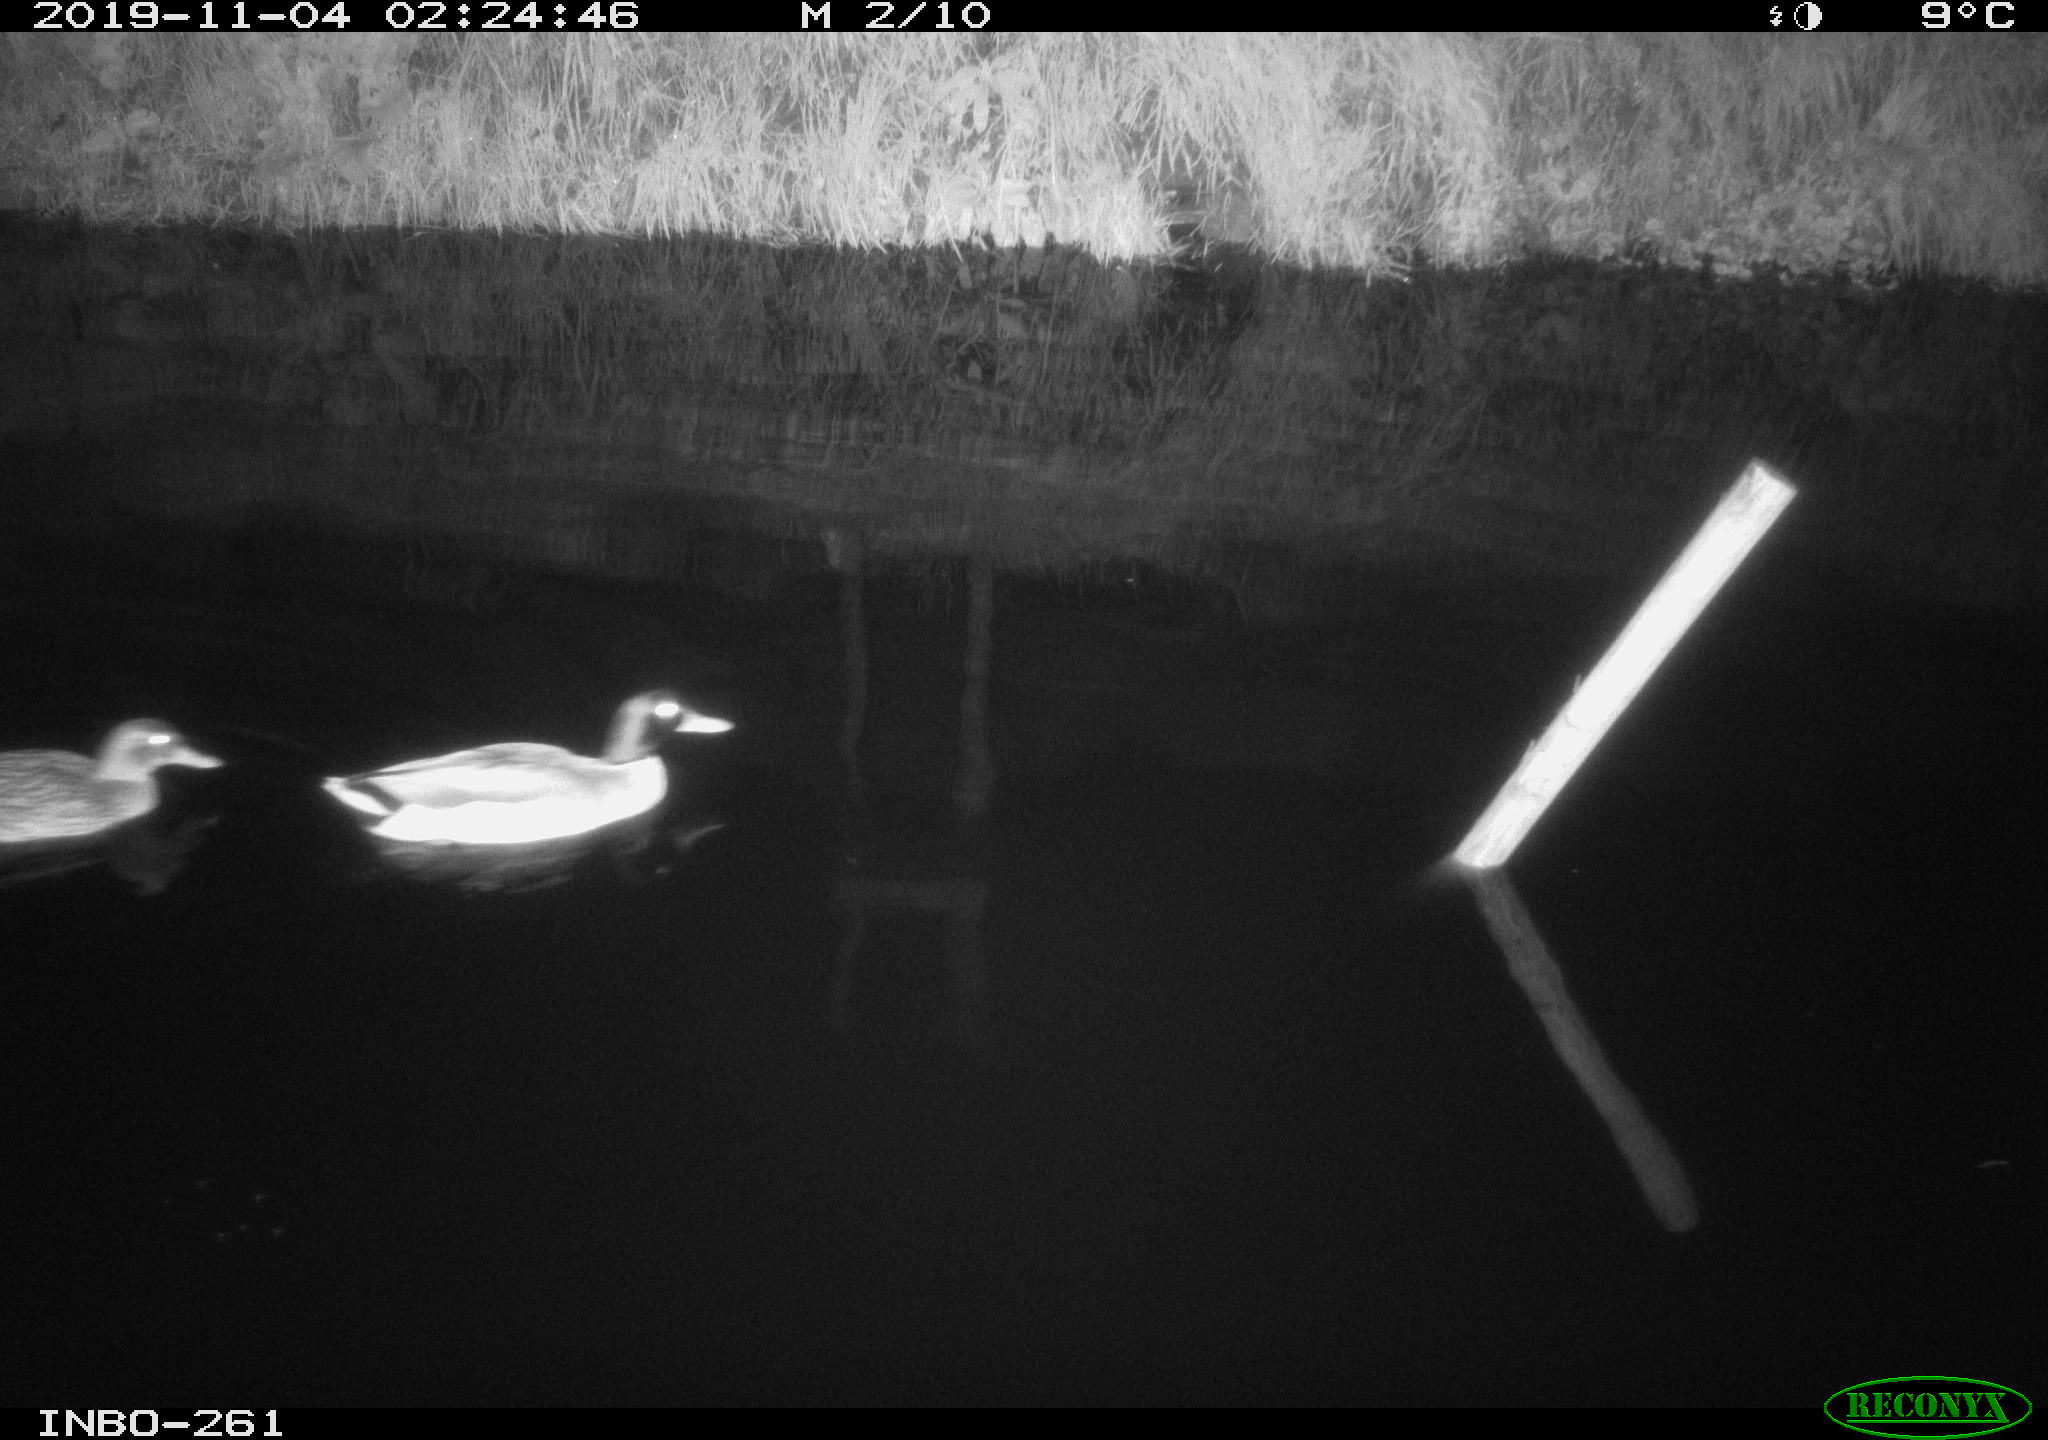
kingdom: Animalia
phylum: Chordata
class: Aves
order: Anseriformes
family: Anatidae
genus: Anas
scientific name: Anas platyrhynchos
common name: Mallard
